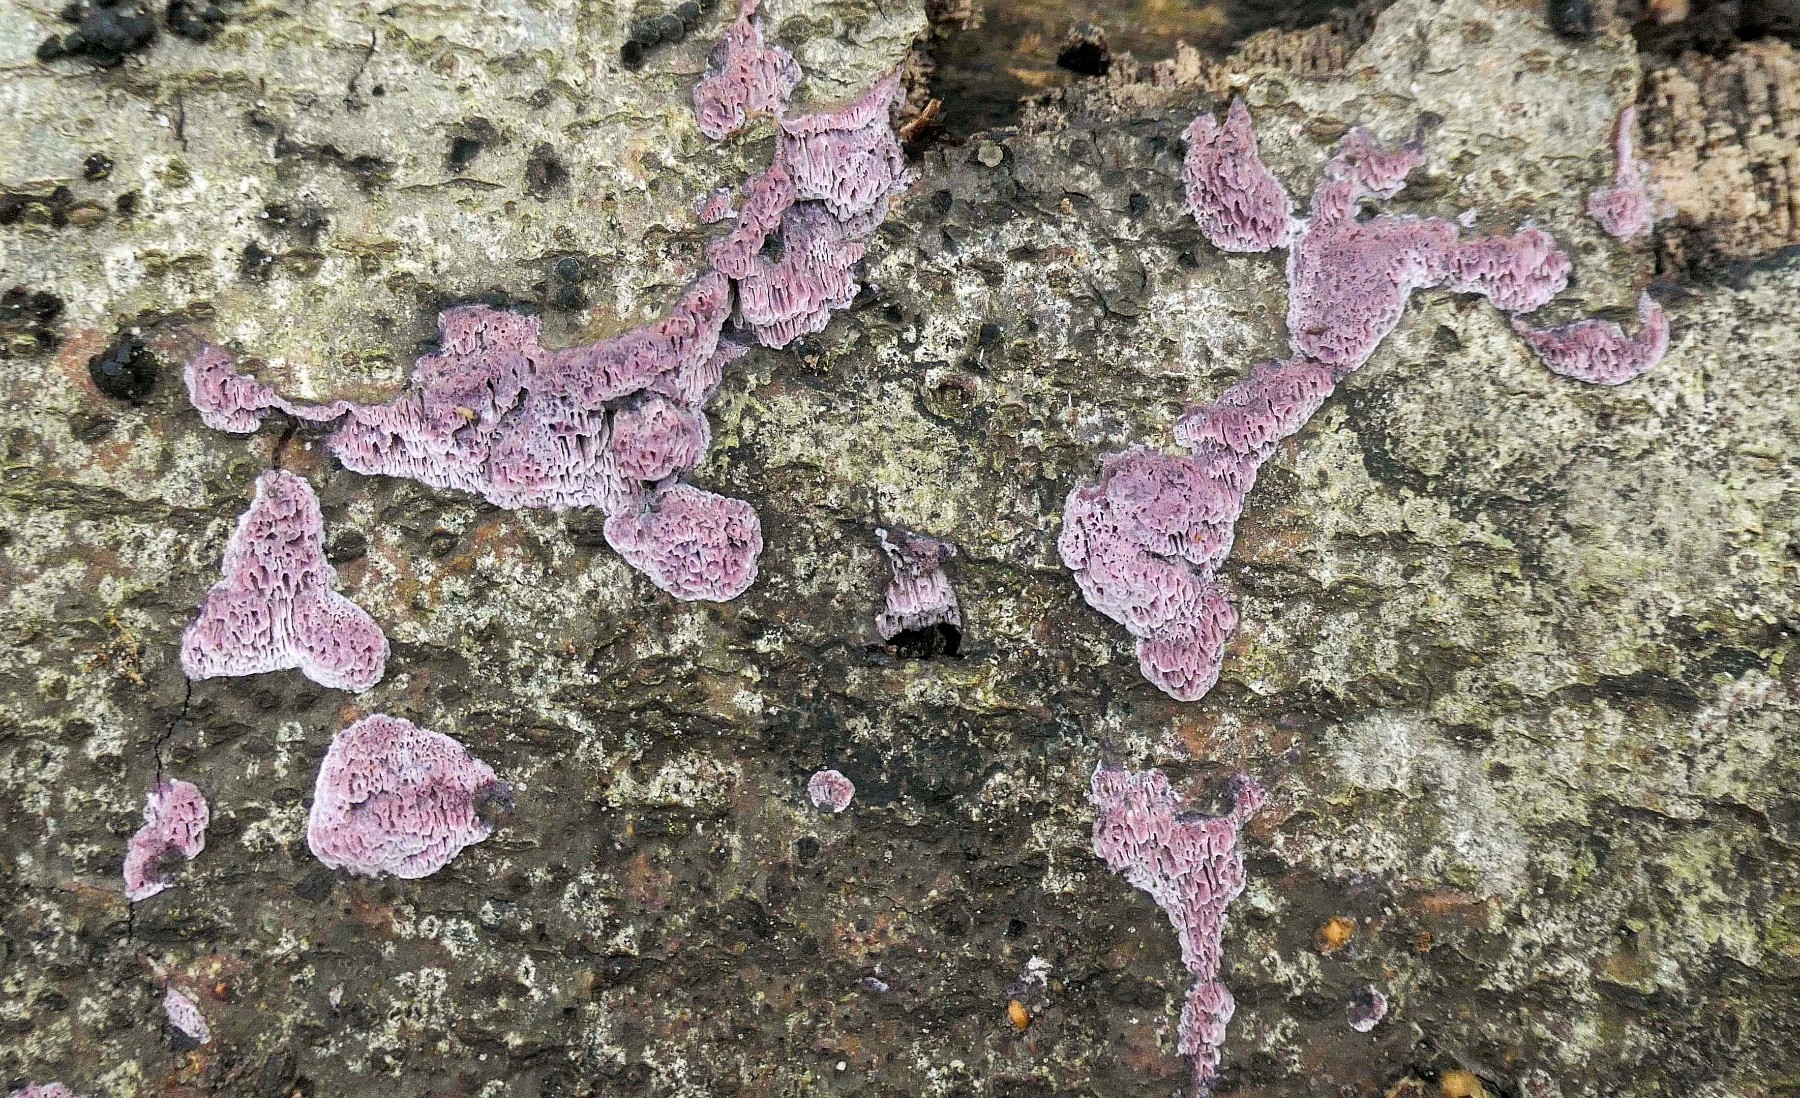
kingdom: Fungi
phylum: Basidiomycota
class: Agaricomycetes
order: Polyporales
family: Irpicaceae
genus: Ceriporia
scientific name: Ceriporia
